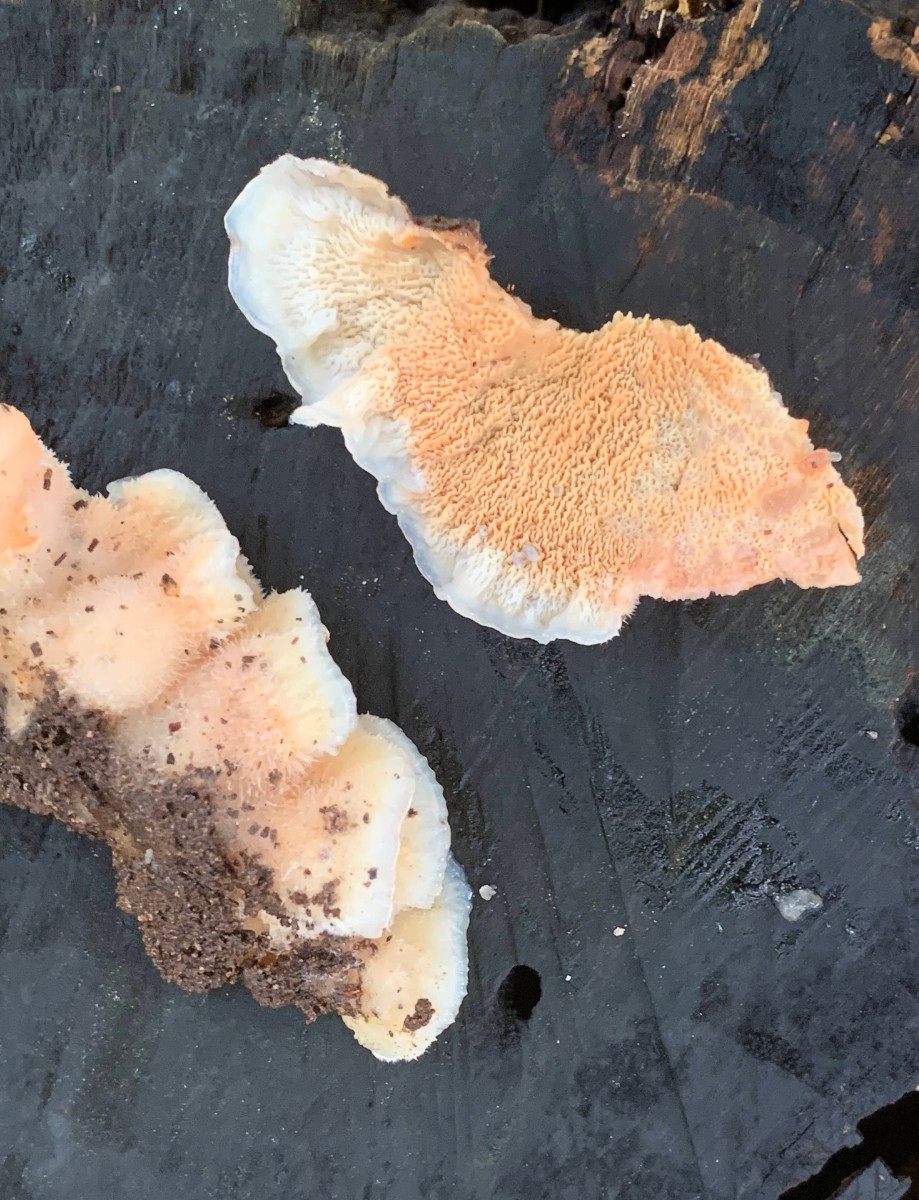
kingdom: Fungi
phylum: Basidiomycota
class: Agaricomycetes
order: Polyporales
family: Meruliaceae
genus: Phlebia
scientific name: Phlebia tremellosa
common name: bævrende åresvamp
